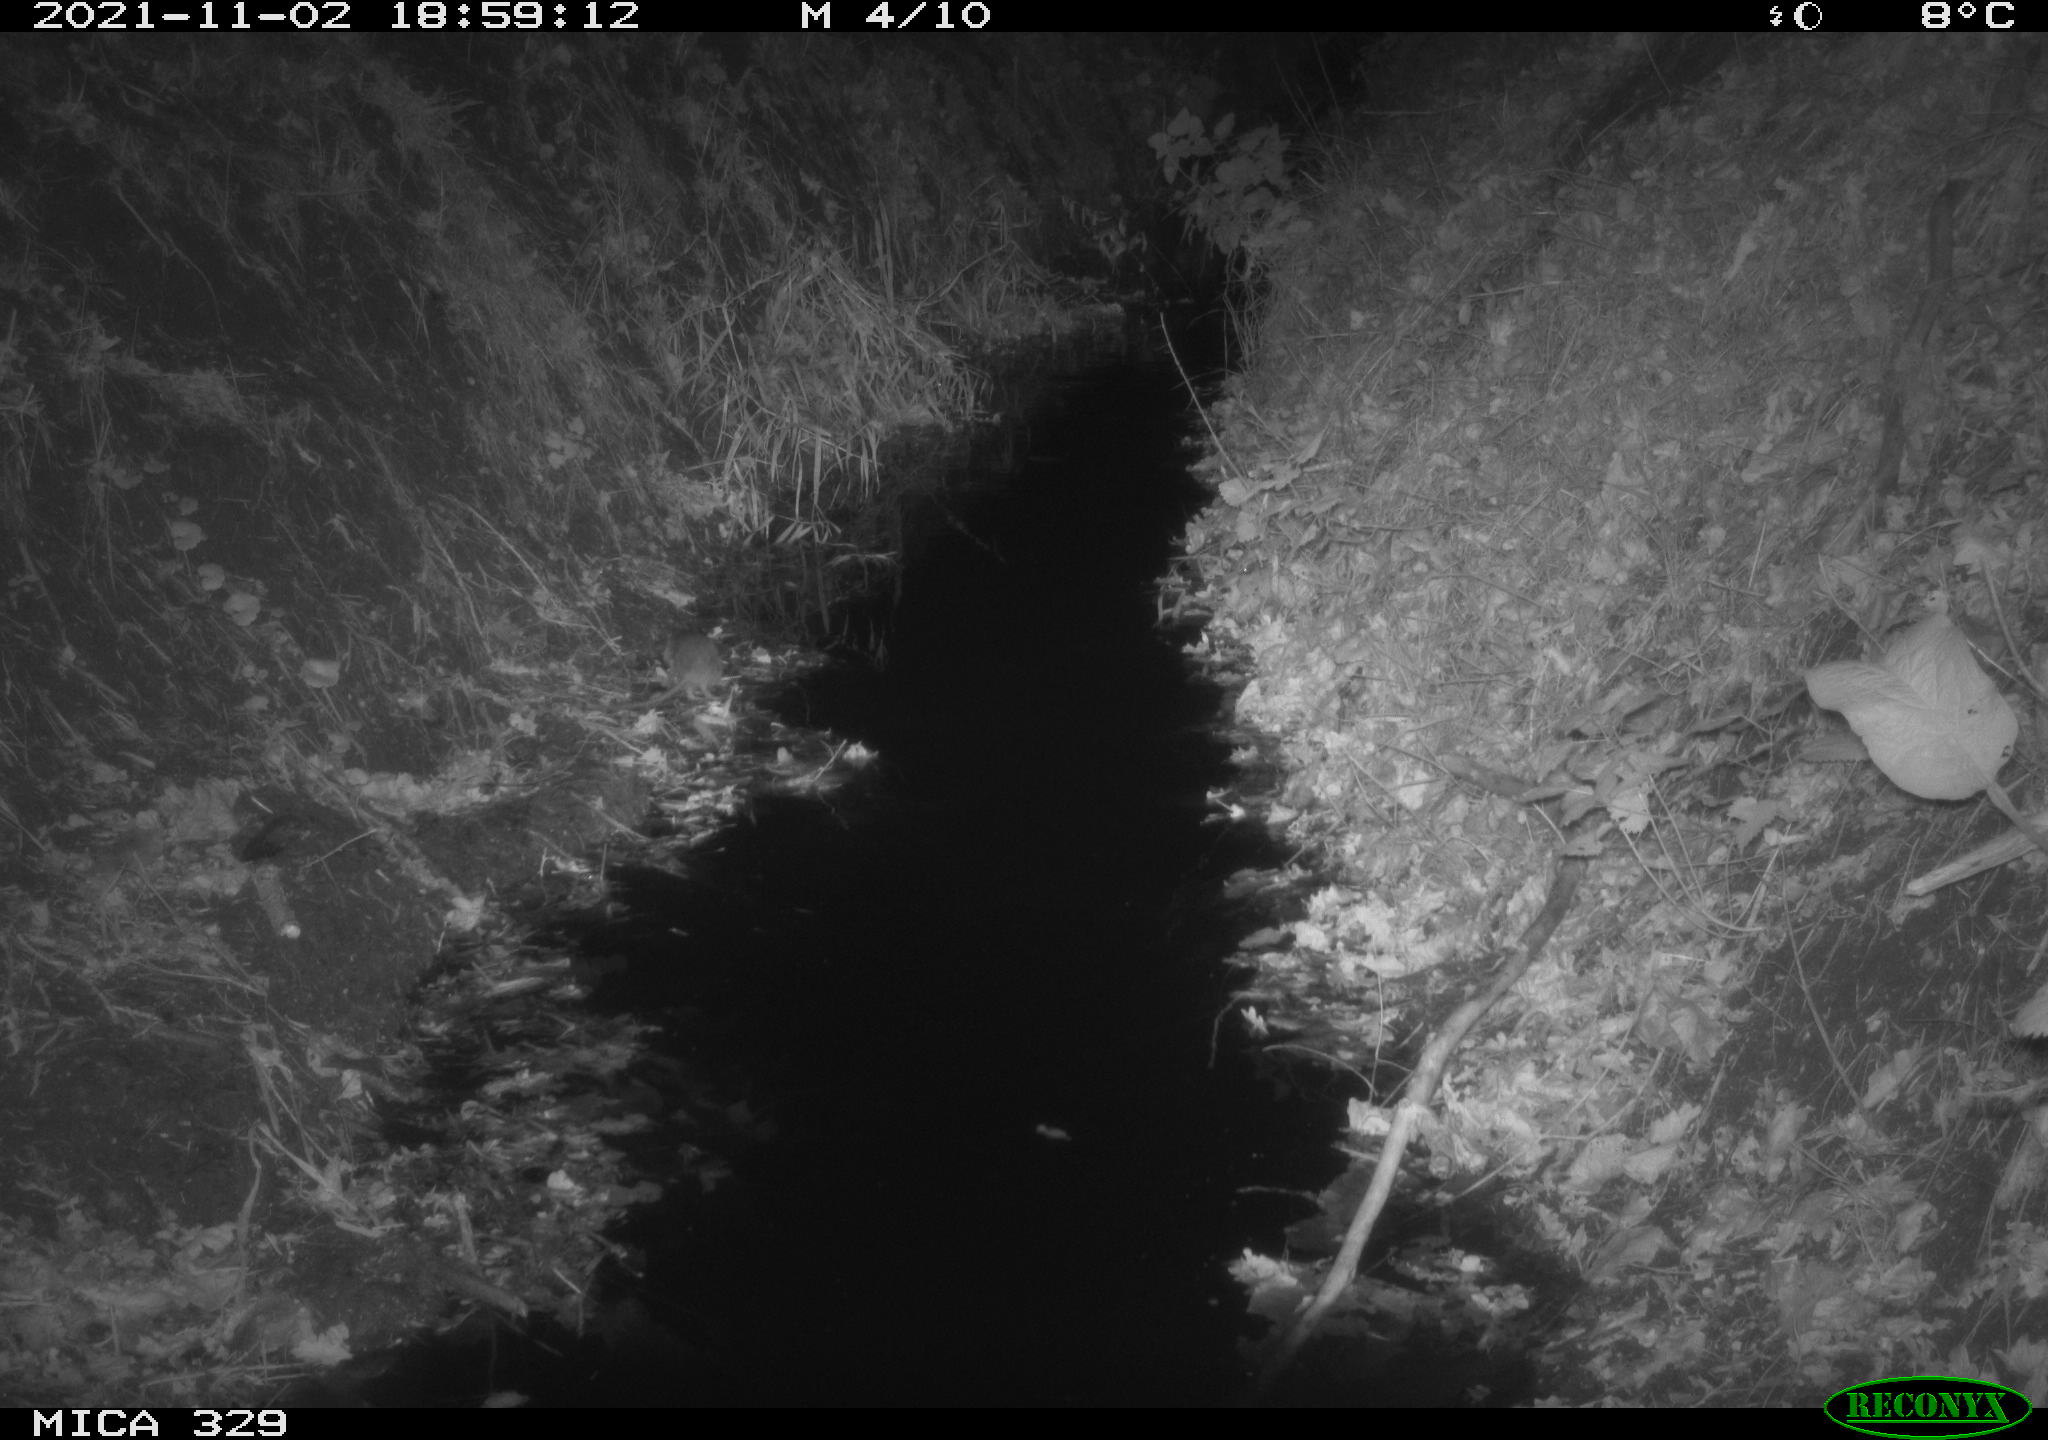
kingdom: Animalia
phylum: Chordata
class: Mammalia
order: Rodentia
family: Muridae
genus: Rattus
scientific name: Rattus norvegicus
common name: Brown rat
